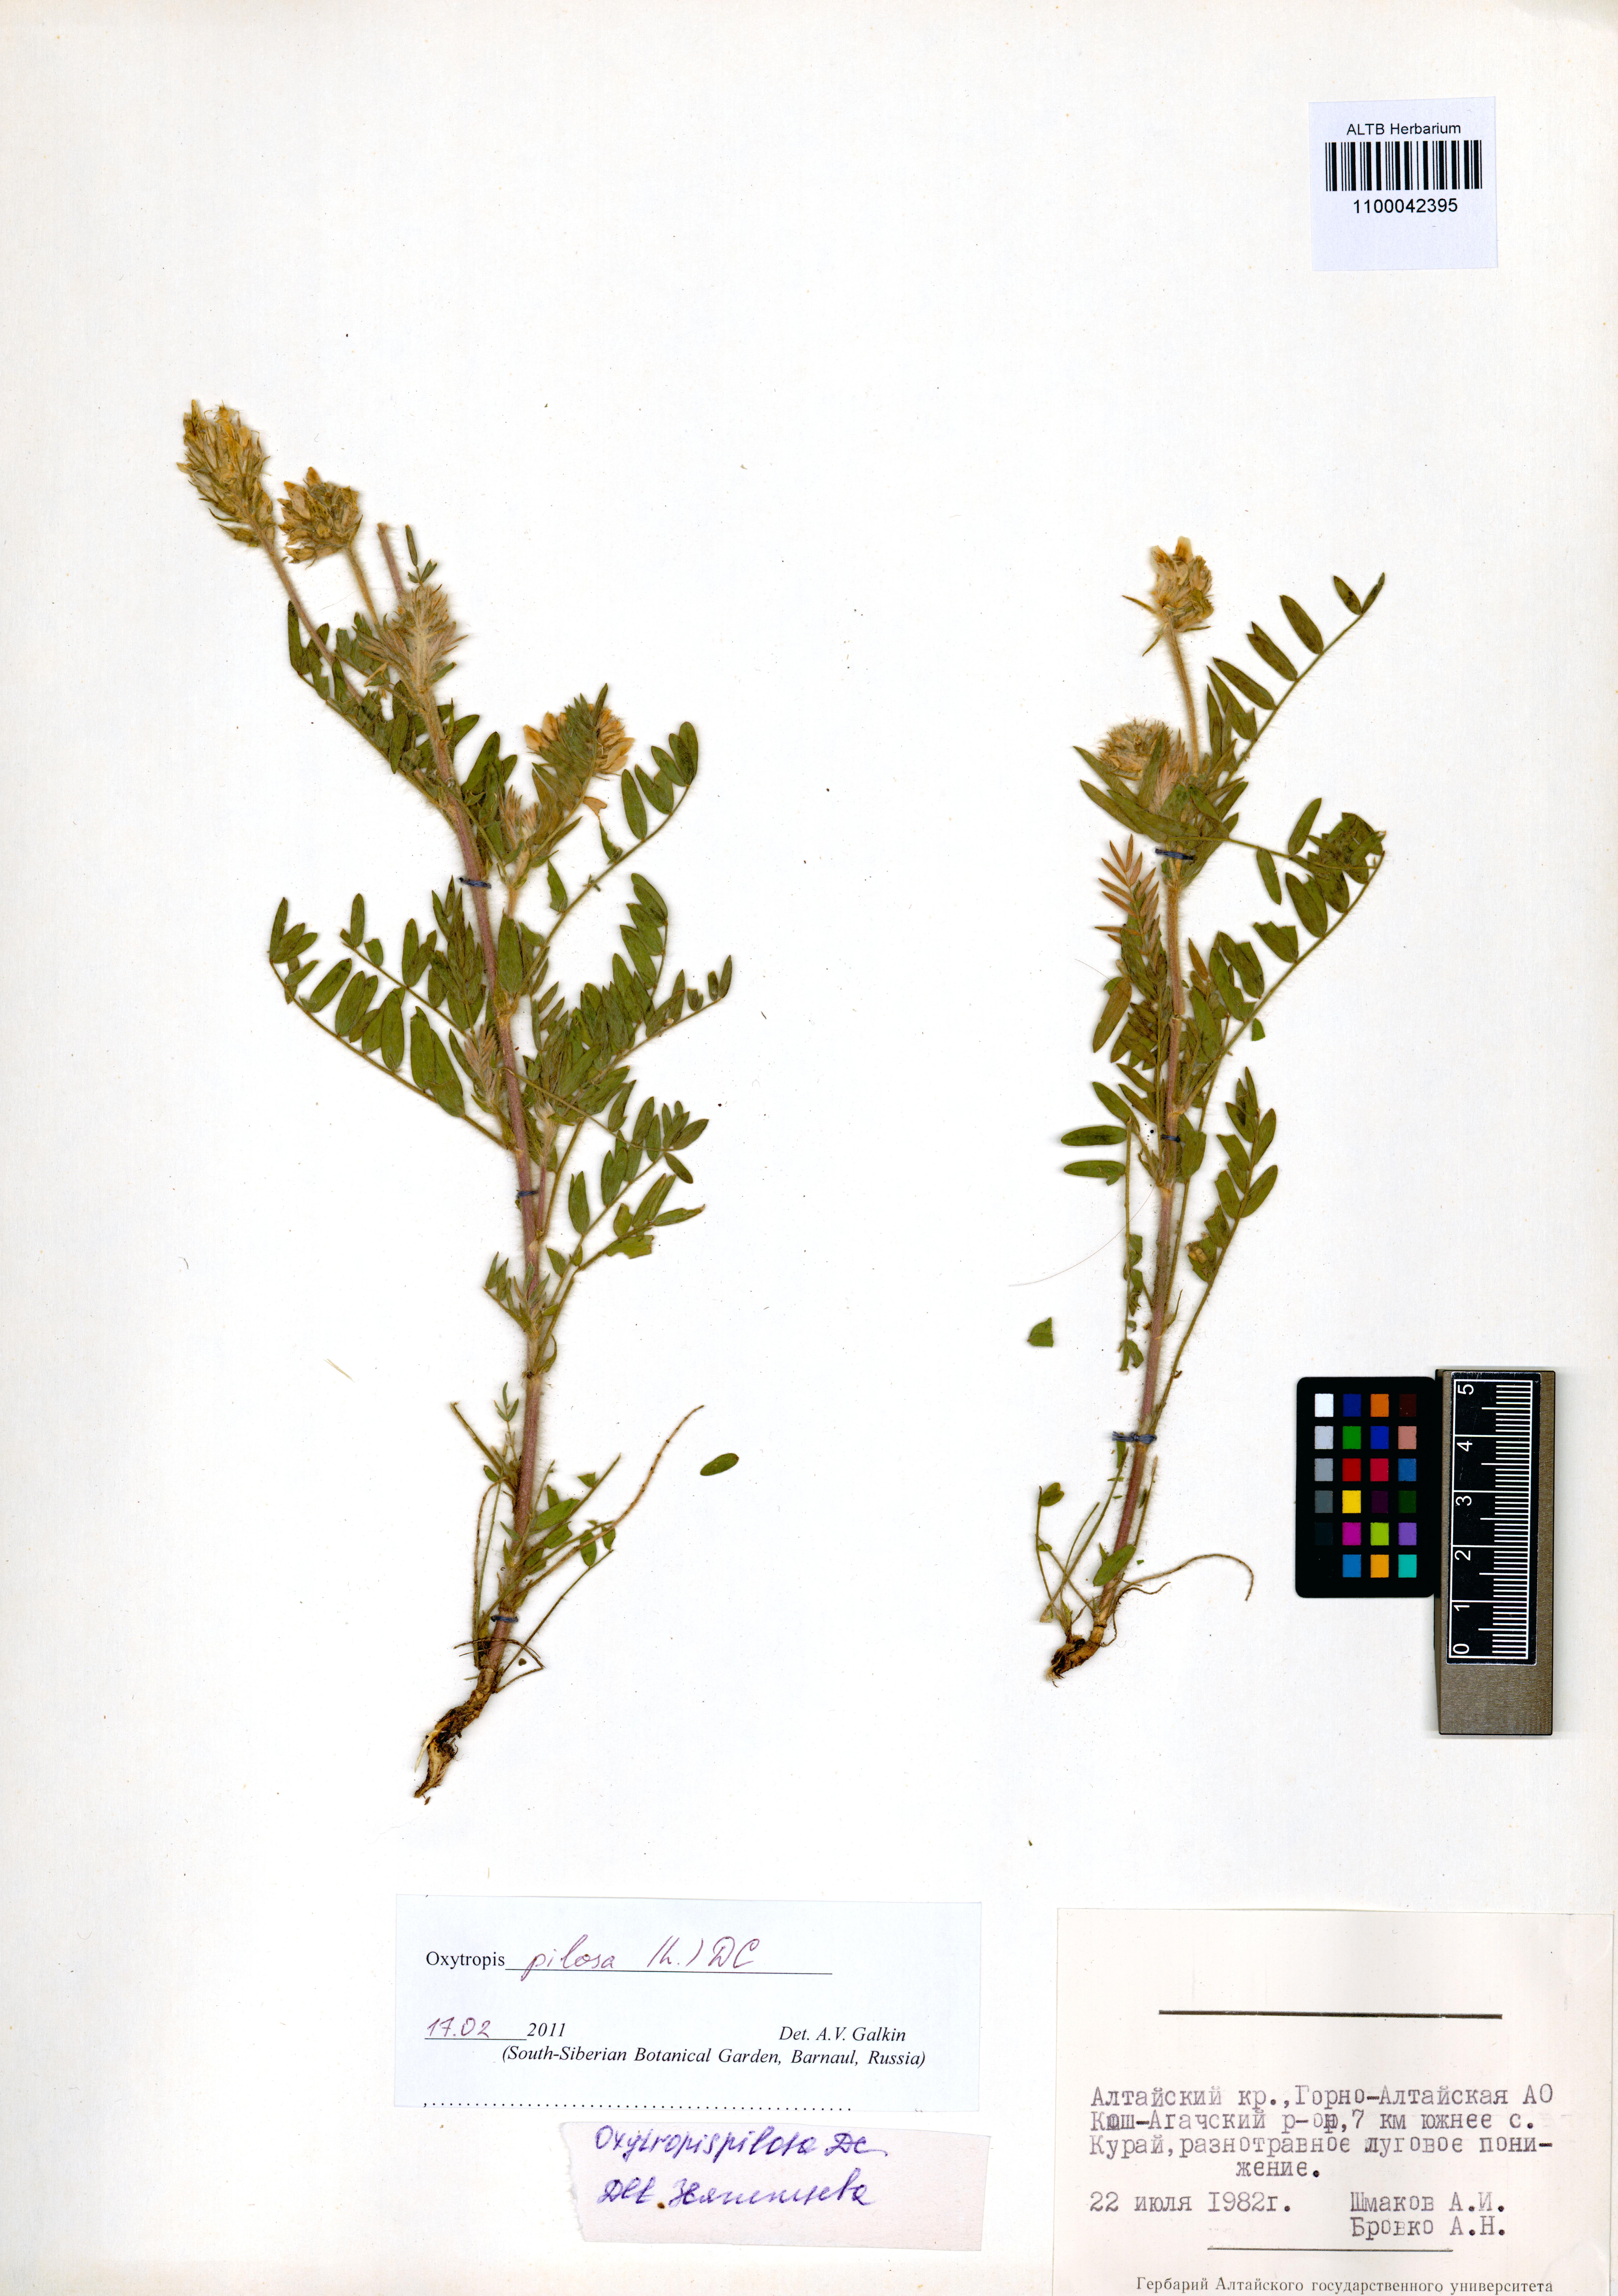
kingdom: Plantae
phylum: Tracheophyta
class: Magnoliopsida
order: Fabales
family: Fabaceae
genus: Oxytropis
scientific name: Oxytropis pilosa
